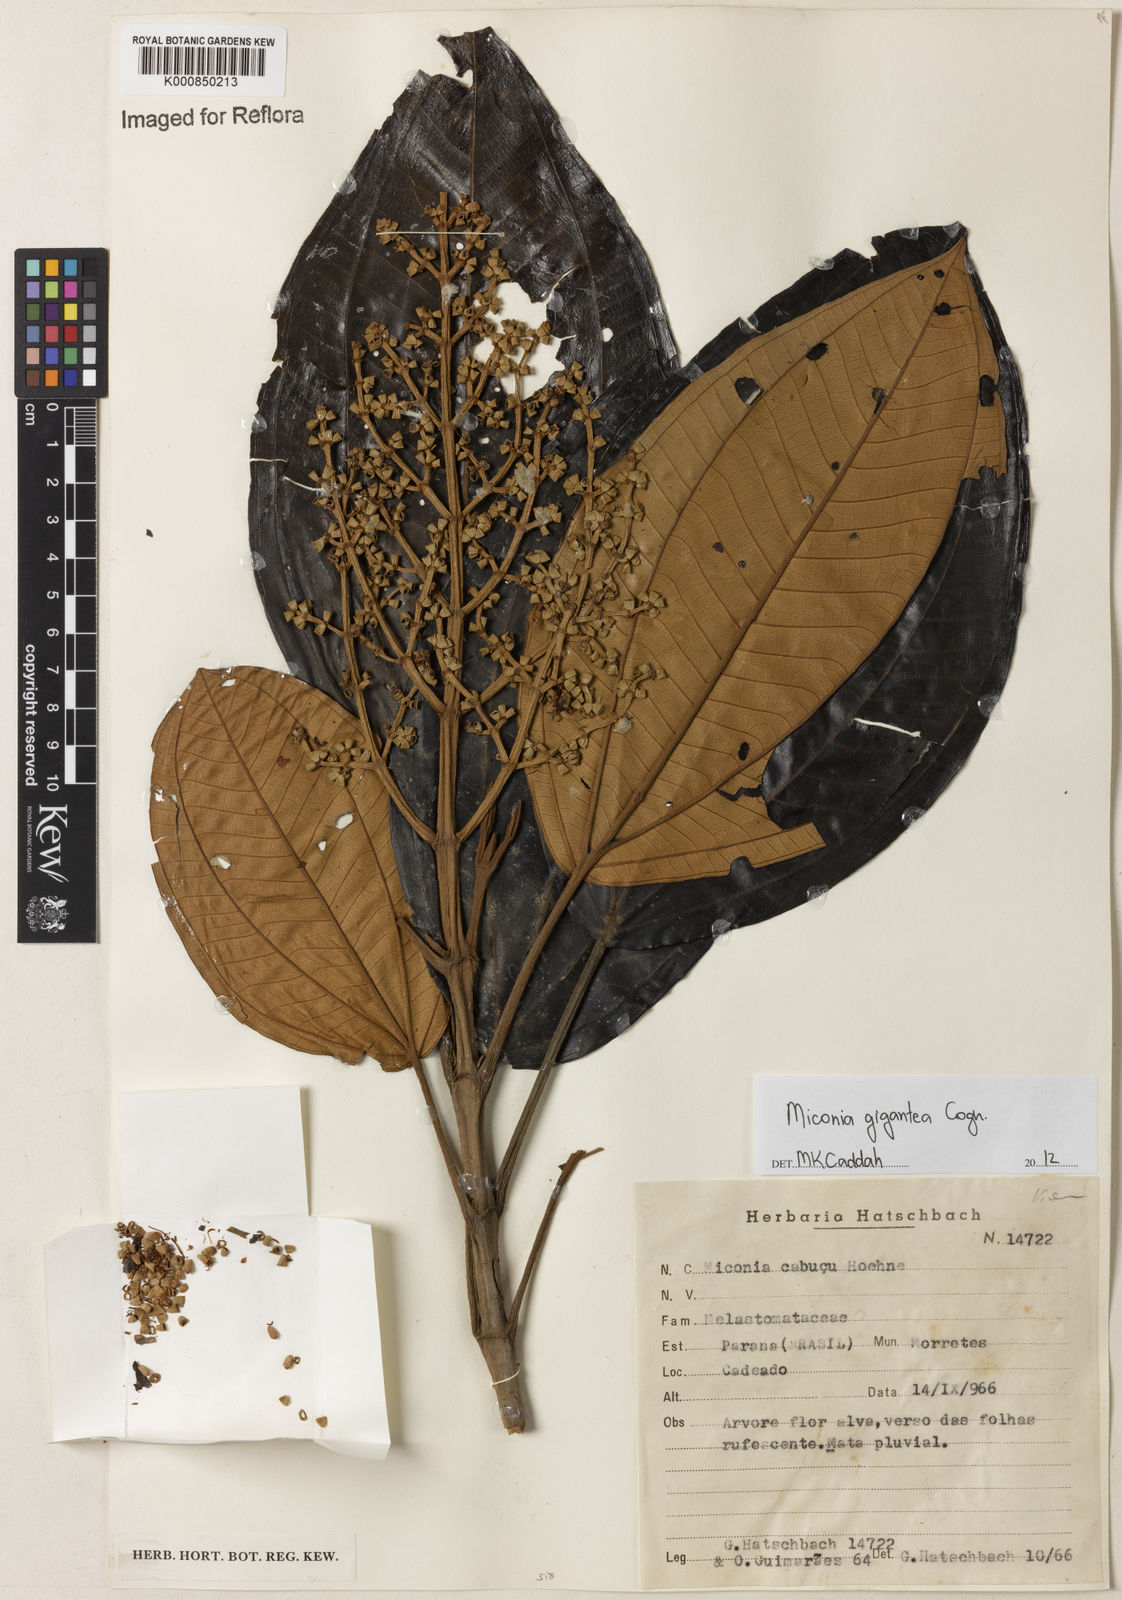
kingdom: Plantae
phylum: Tracheophyta
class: Magnoliopsida
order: Myrtales
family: Melastomataceae
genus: Miconia
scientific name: Miconia formosa
